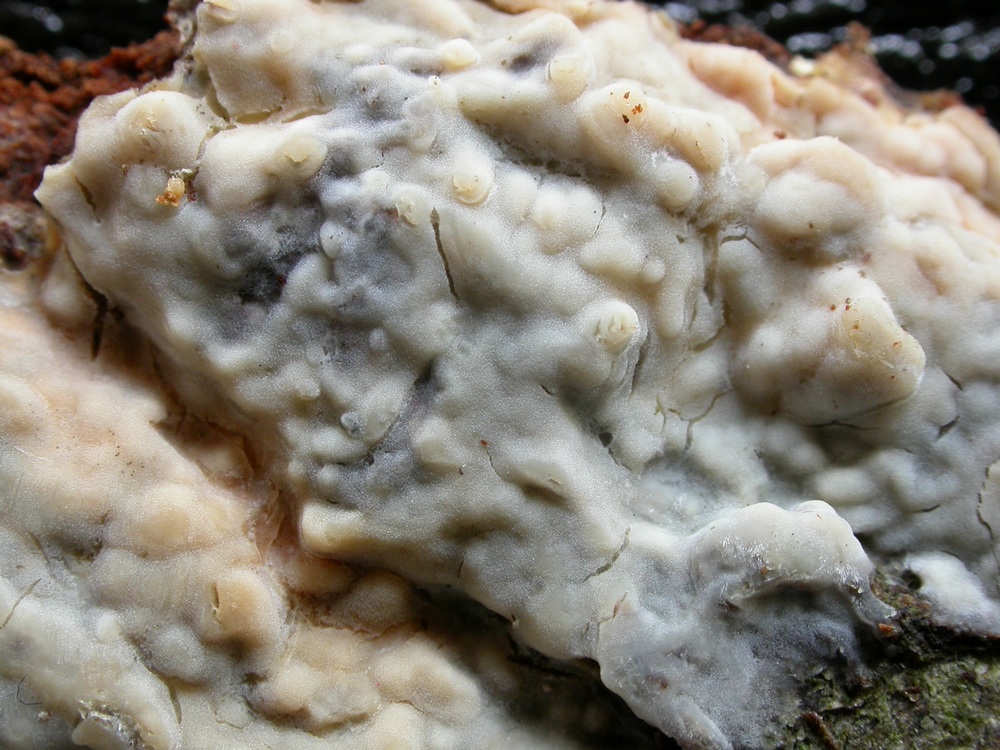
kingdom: Fungi
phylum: Basidiomycota
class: Agaricomycetes
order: Agaricales
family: Radulomycetaceae
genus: Radulomyces
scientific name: Radulomyces confluens
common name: glat naftalinskind
